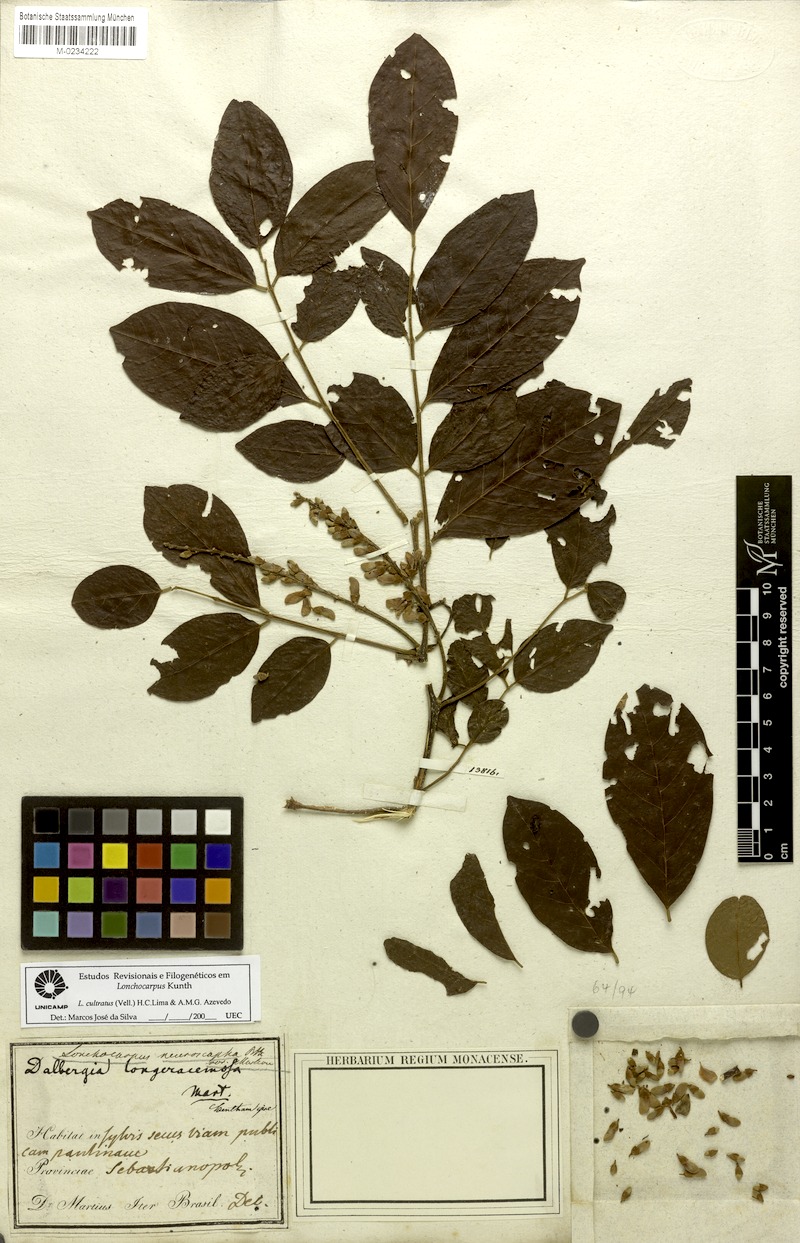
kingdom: Plantae
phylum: Tracheophyta
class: Magnoliopsida
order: Fabales
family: Fabaceae
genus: Lonchocarpus
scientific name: Lonchocarpus cultratus
